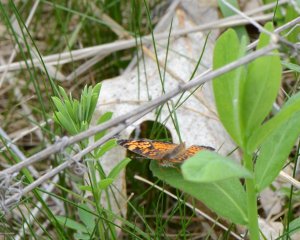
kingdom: Animalia
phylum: Arthropoda
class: Insecta
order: Lepidoptera
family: Nymphalidae
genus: Phyciodes
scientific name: Phyciodes tharos
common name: Pearl Crescent
